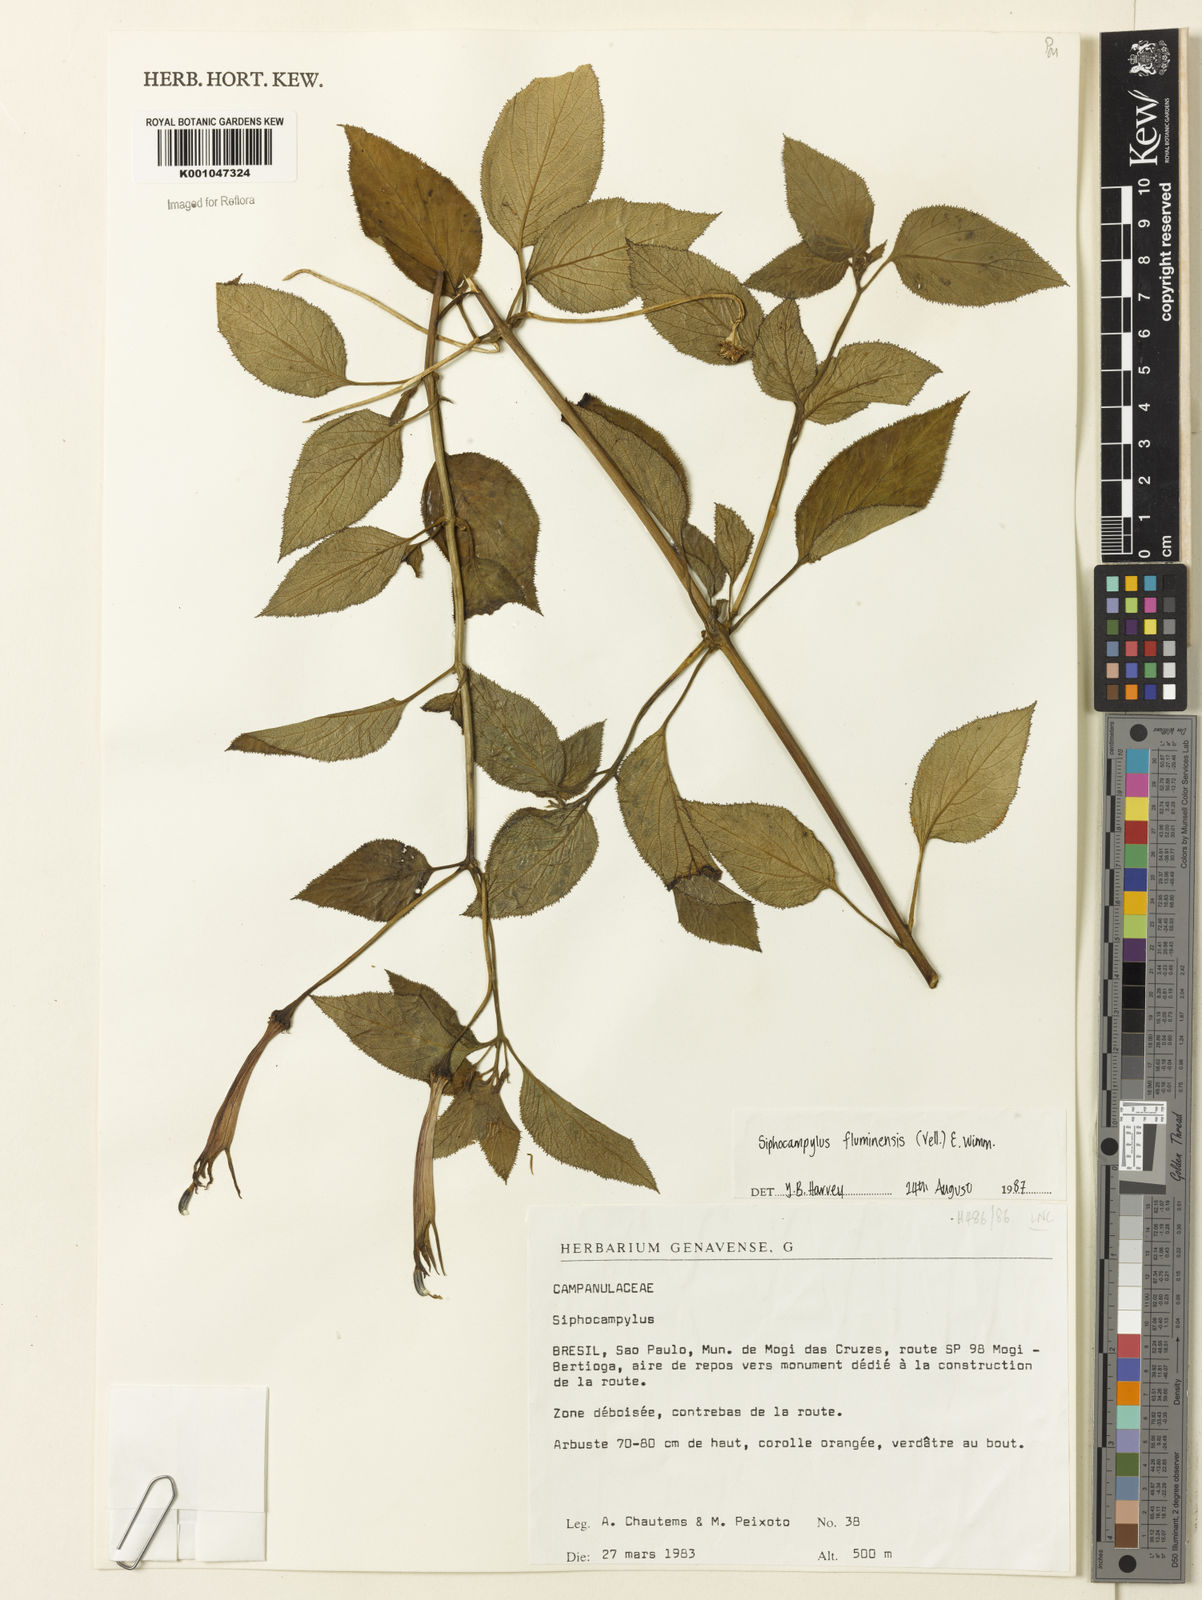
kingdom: Plantae
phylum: Tracheophyta
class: Magnoliopsida
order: Asterales
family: Campanulaceae
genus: Siphocampylus
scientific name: Siphocampylus fluminensis
